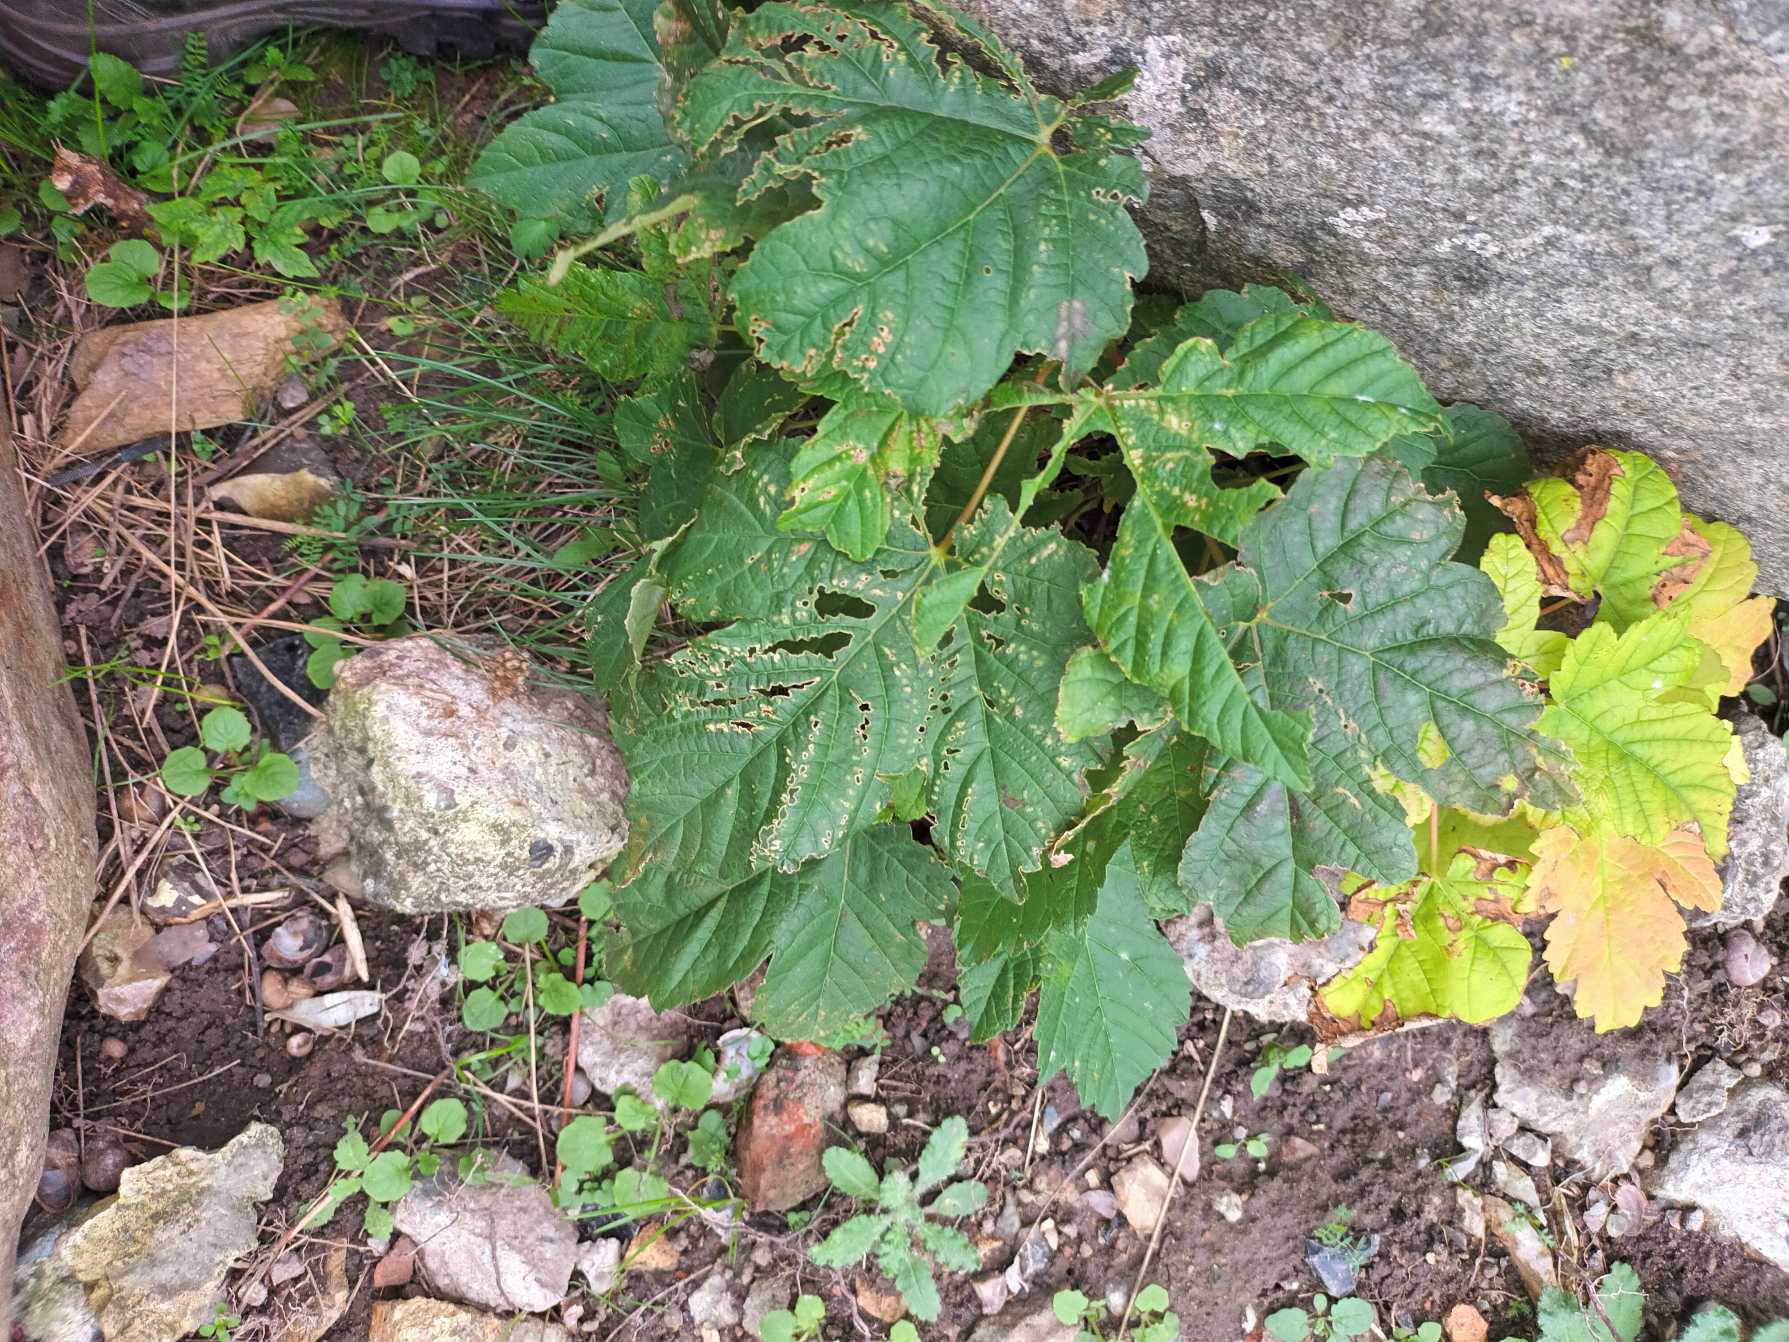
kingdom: Plantae
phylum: Tracheophyta
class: Magnoliopsida
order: Sapindales
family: Sapindaceae
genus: Acer
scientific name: Acer pseudoplatanus
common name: Ahorn
